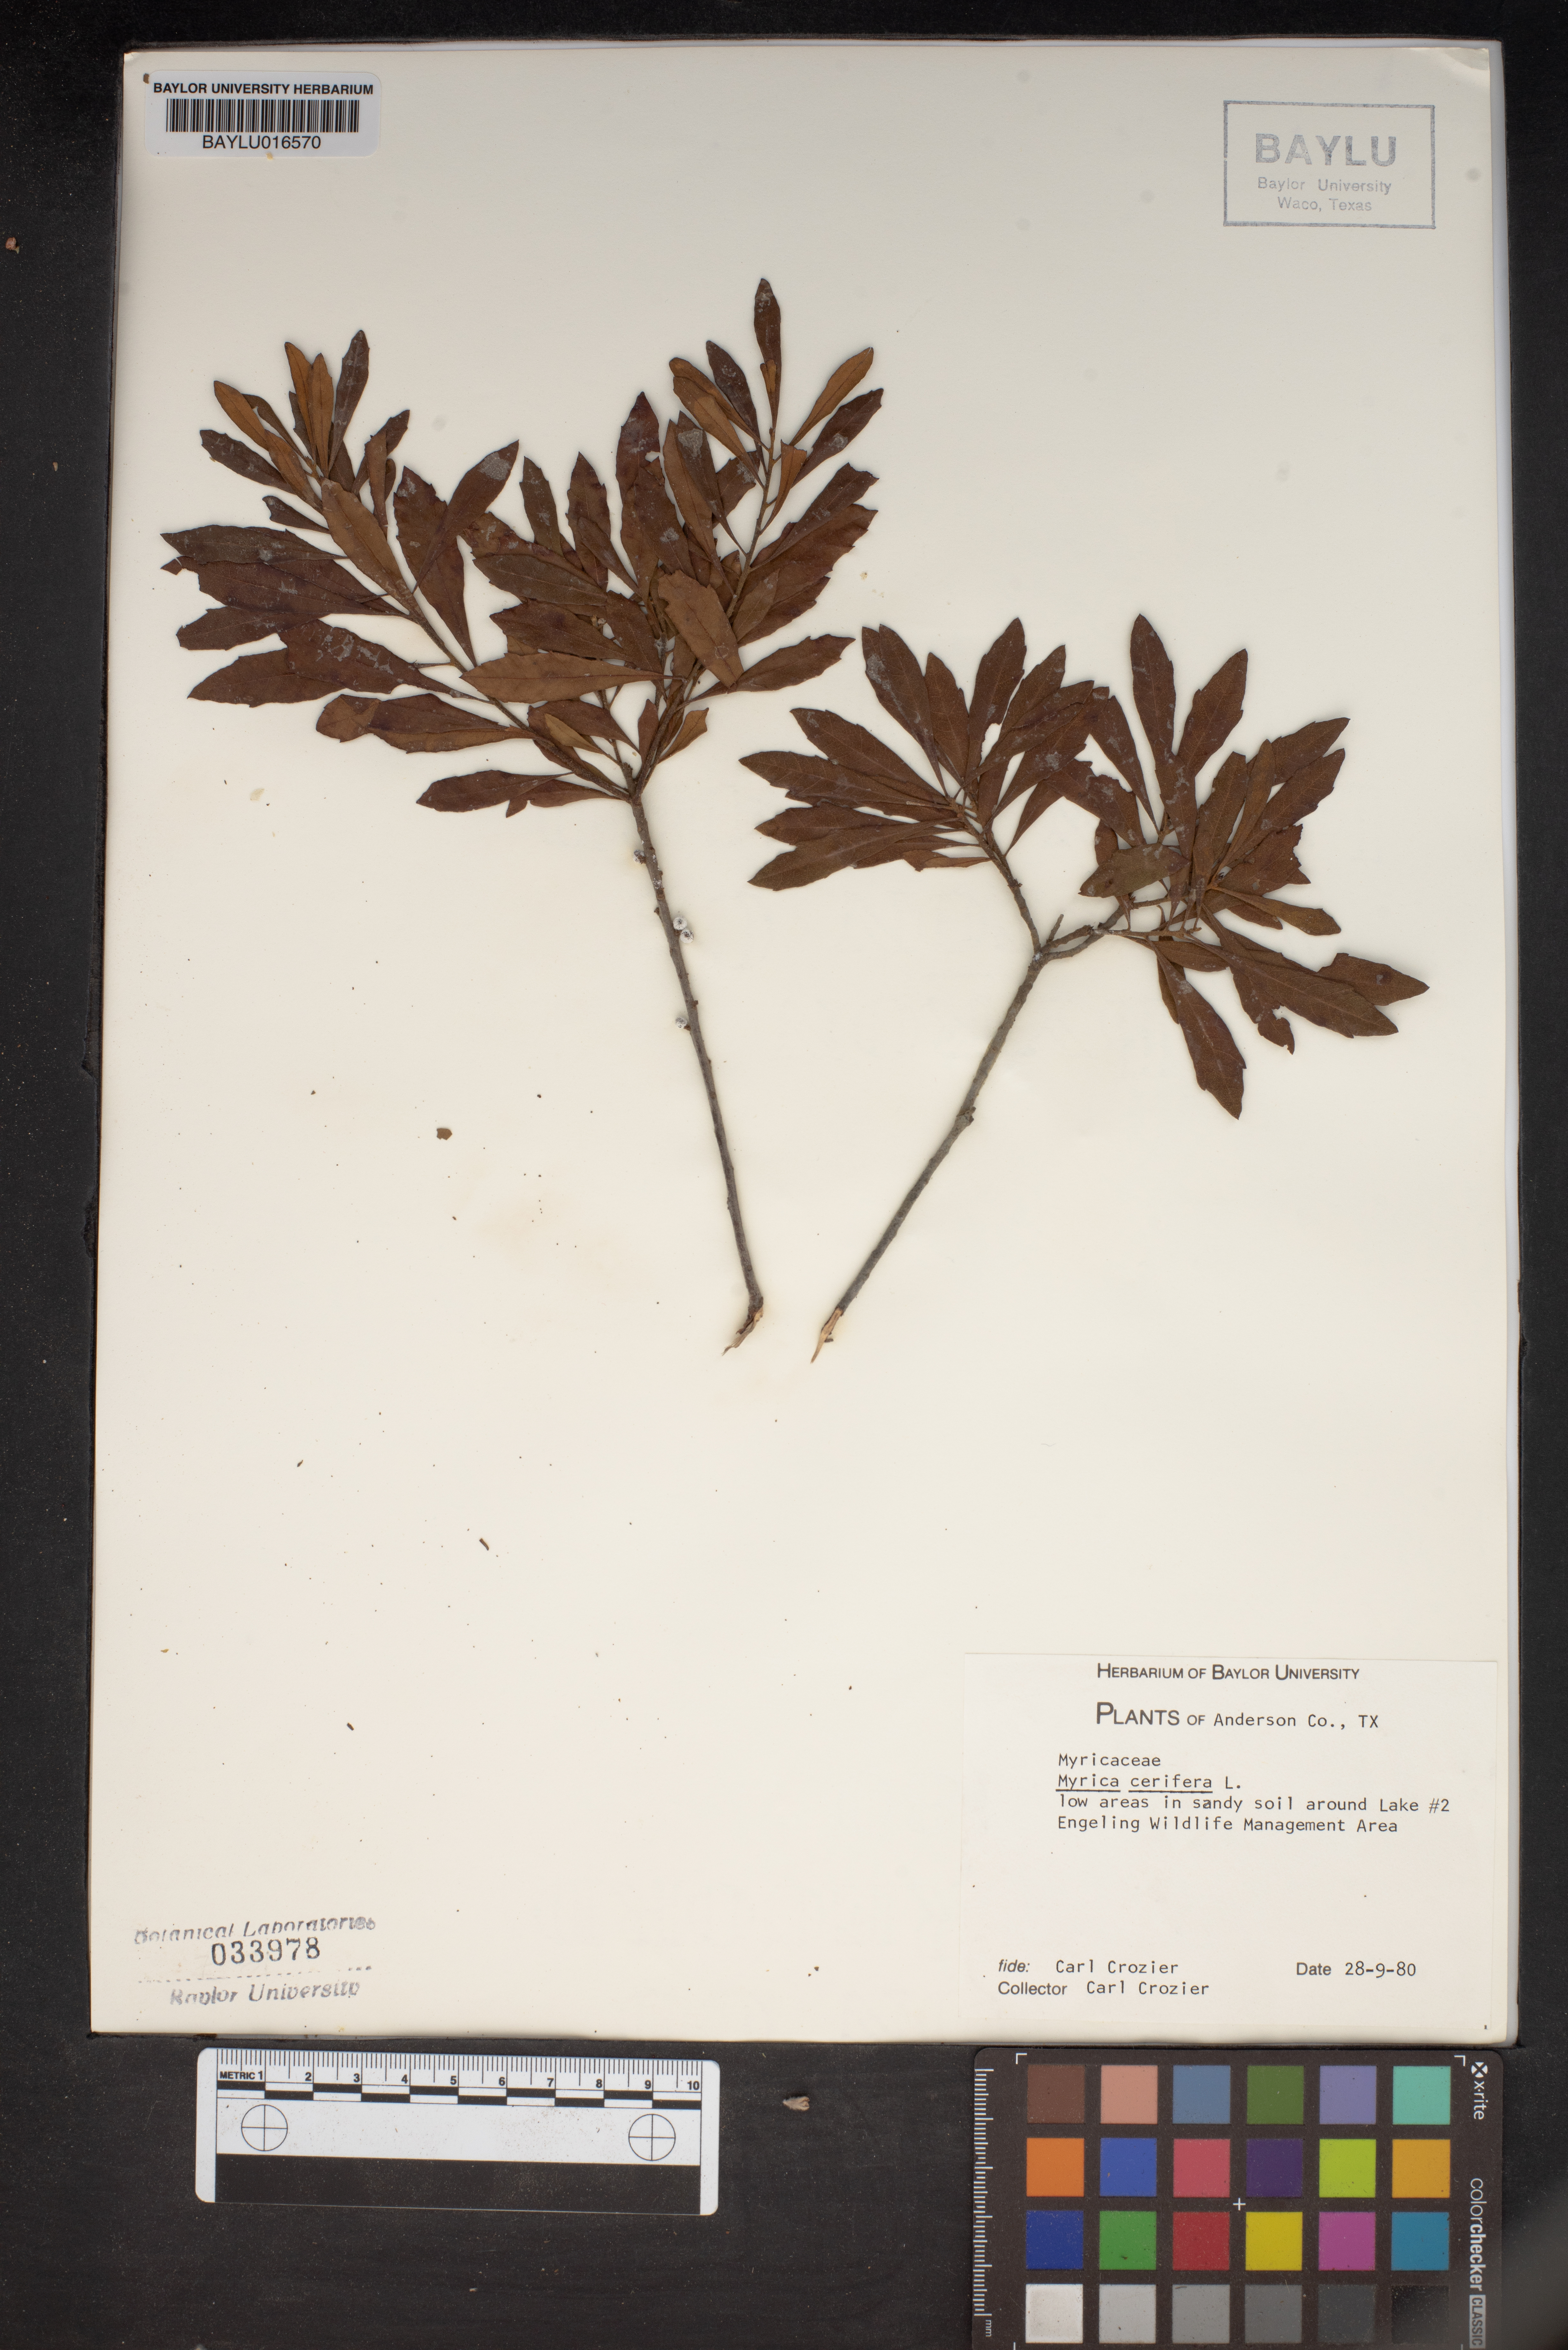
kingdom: Plantae
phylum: Tracheophyta
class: Magnoliopsida
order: Fagales
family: Myricaceae
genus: Morella
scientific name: Morella cerifera
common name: Wax myrtle
